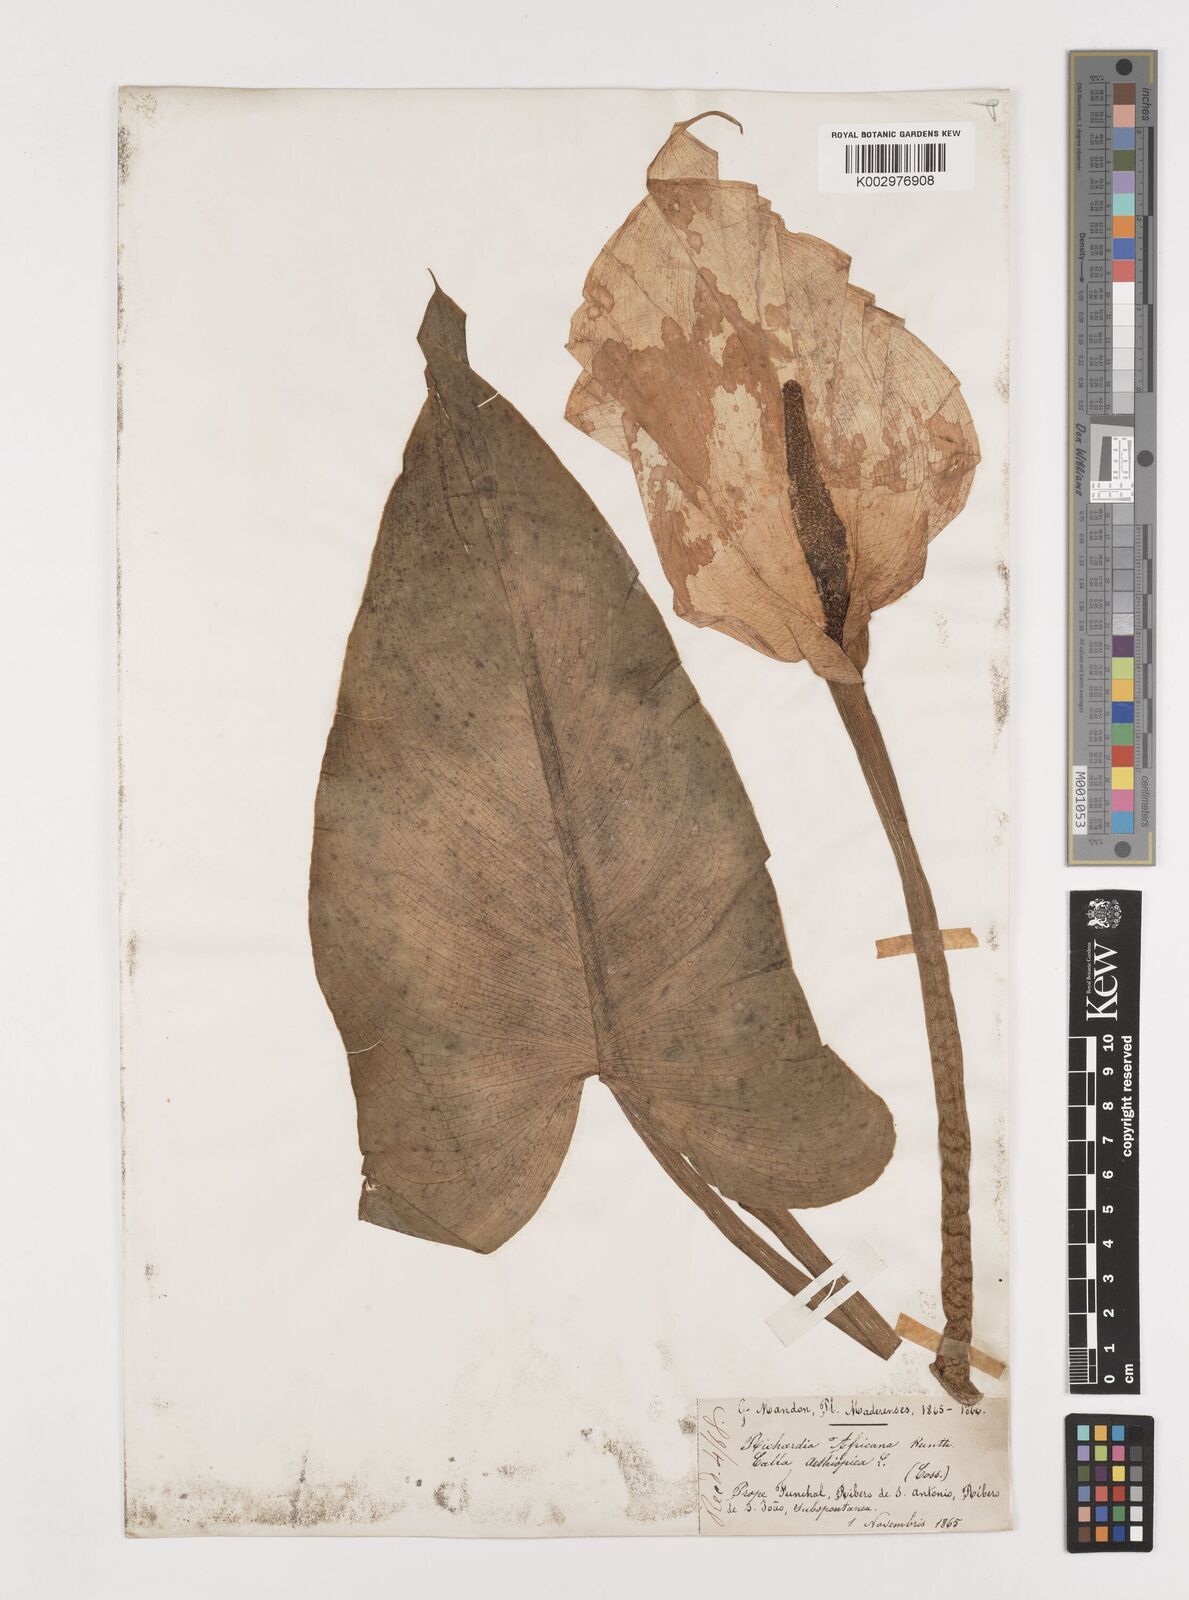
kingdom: Plantae
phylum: Tracheophyta
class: Liliopsida
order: Alismatales
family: Araceae
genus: Zantedeschia
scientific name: Zantedeschia aethiopica
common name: Altar-lily
